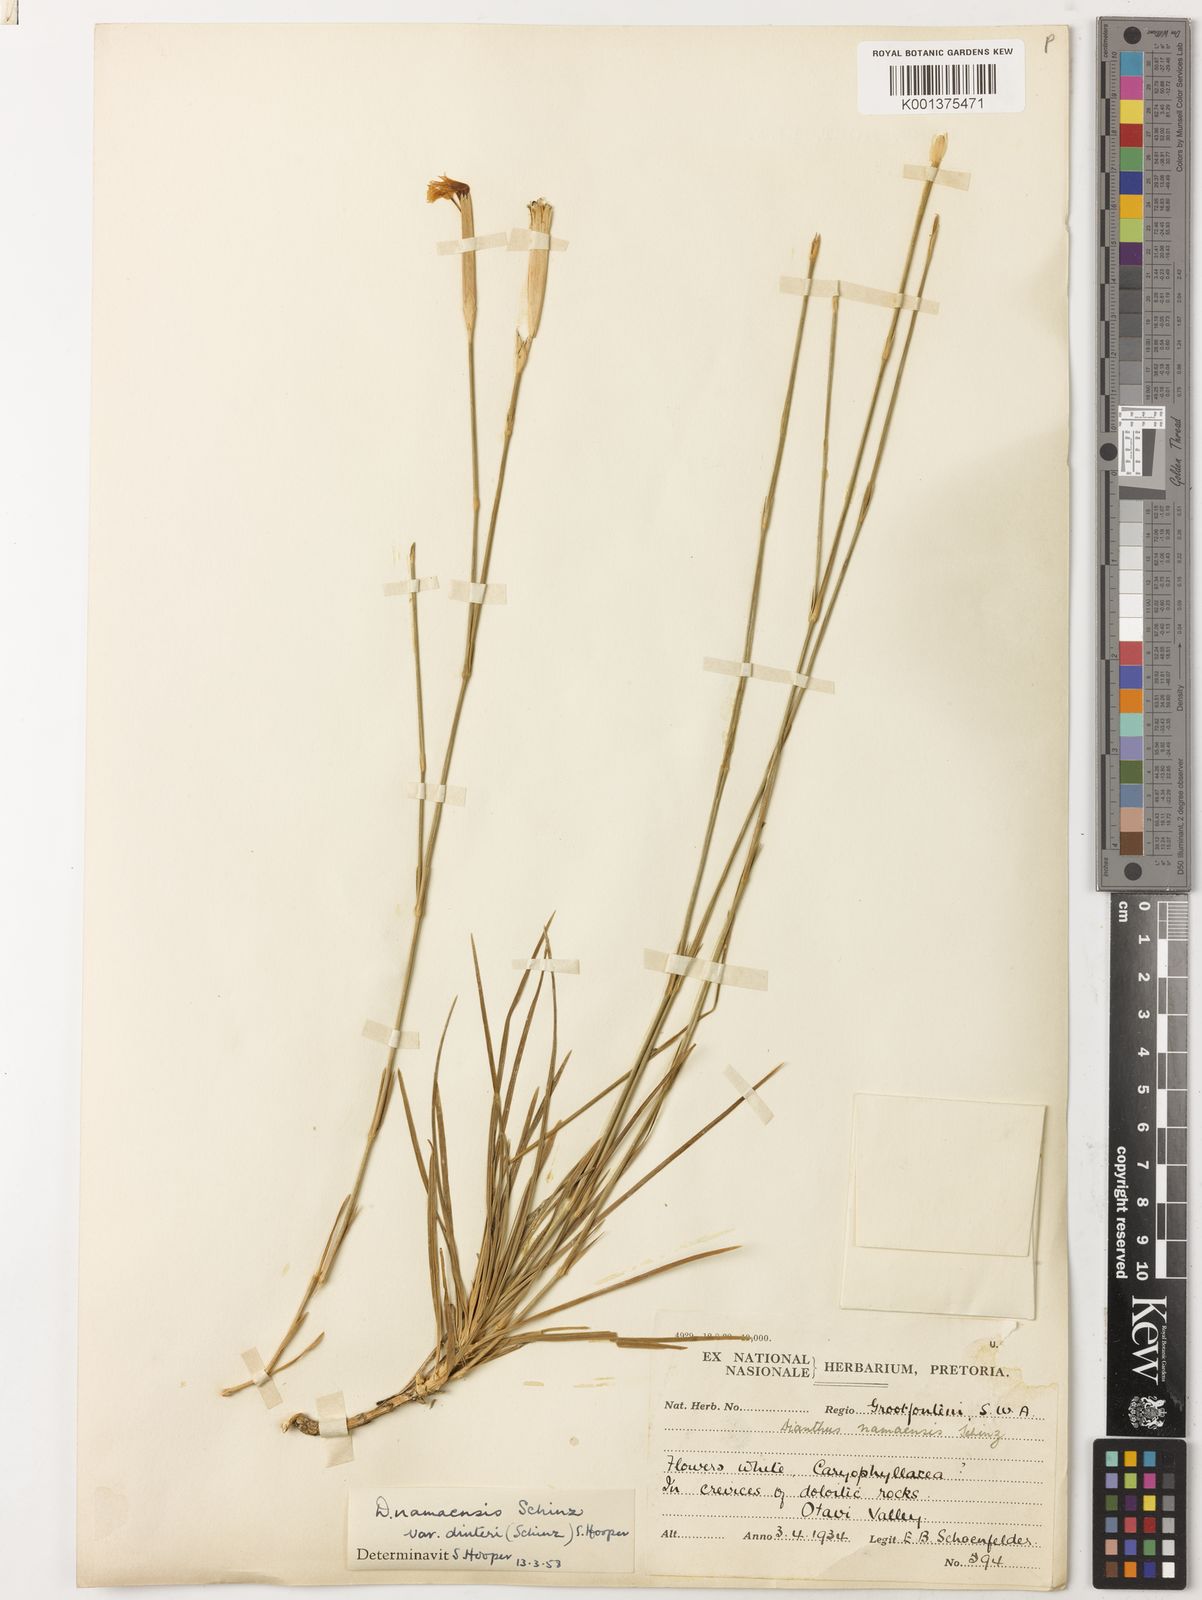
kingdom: Plantae
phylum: Tracheophyta
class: Magnoliopsida
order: Caryophyllales
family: Caryophyllaceae
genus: Dianthus
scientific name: Dianthus namaensis
